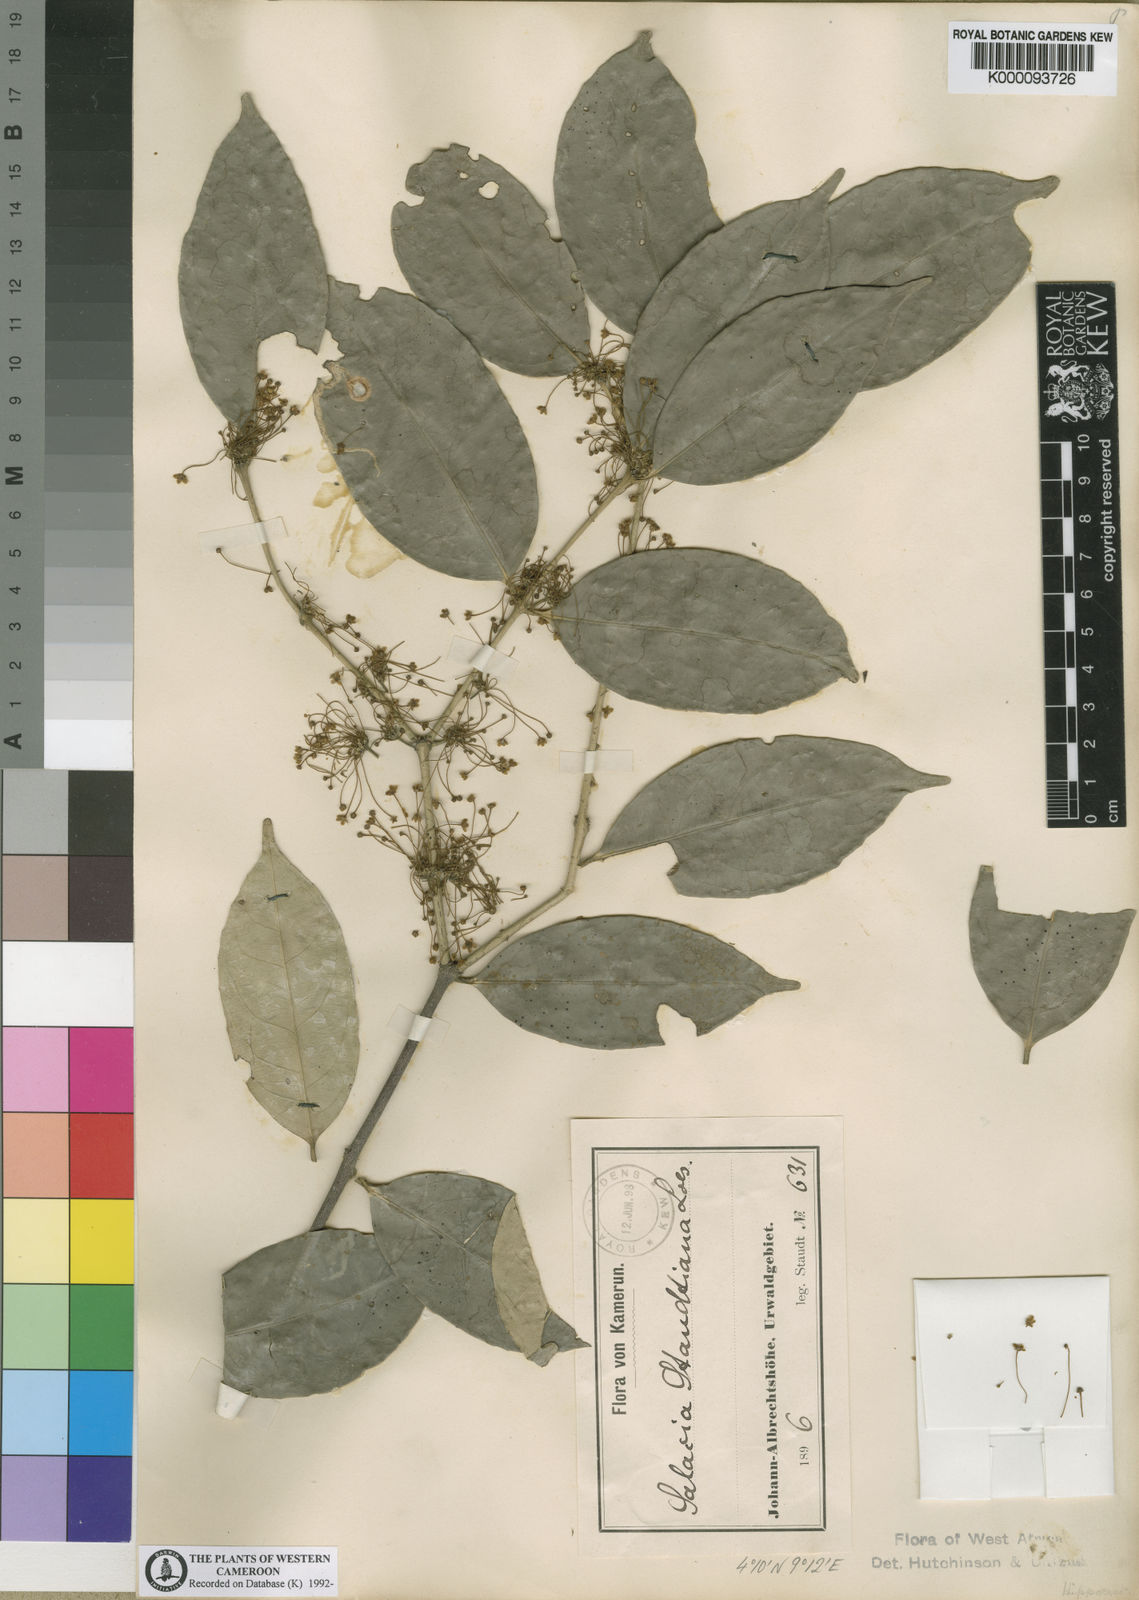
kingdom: Plantae
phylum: Tracheophyta
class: Magnoliopsida
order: Celastrales
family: Celastraceae
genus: Salacia
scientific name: Salacia staudtiana
